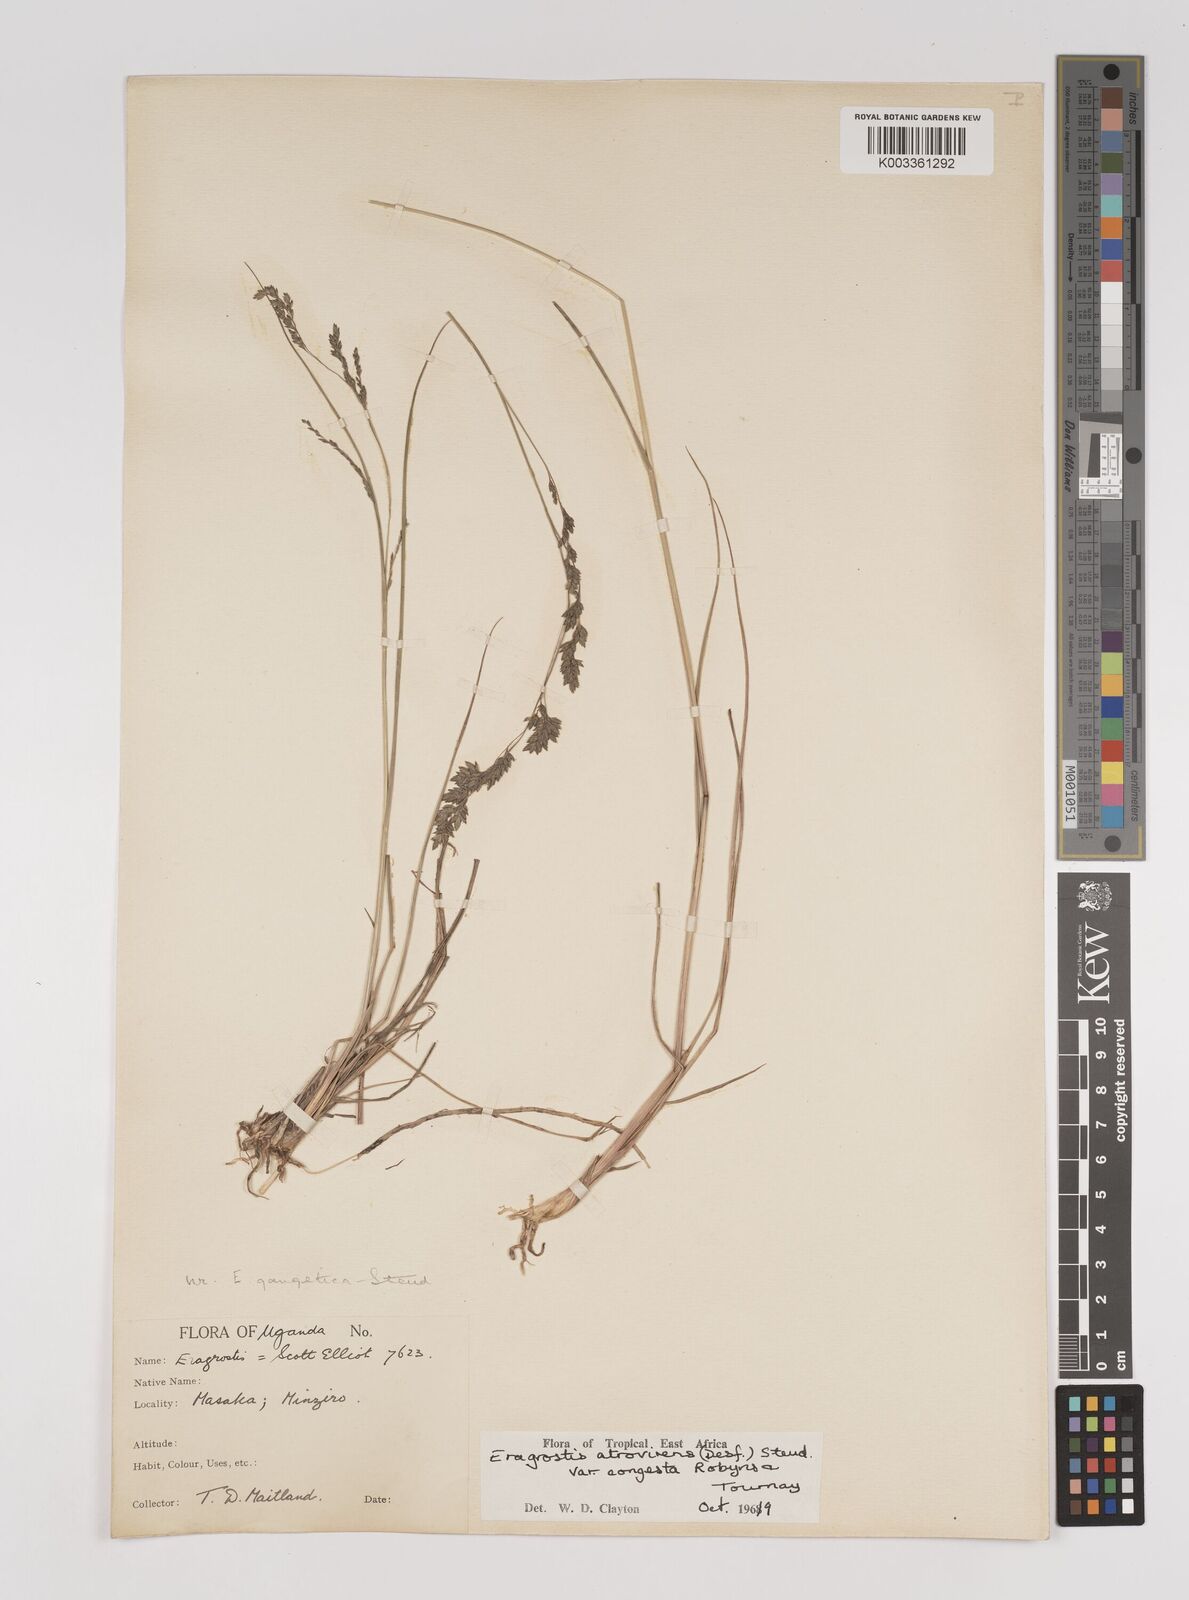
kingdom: Plantae
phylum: Tracheophyta
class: Liliopsida
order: Poales
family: Poaceae
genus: Eragrostis
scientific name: Eragrostis botryodes
